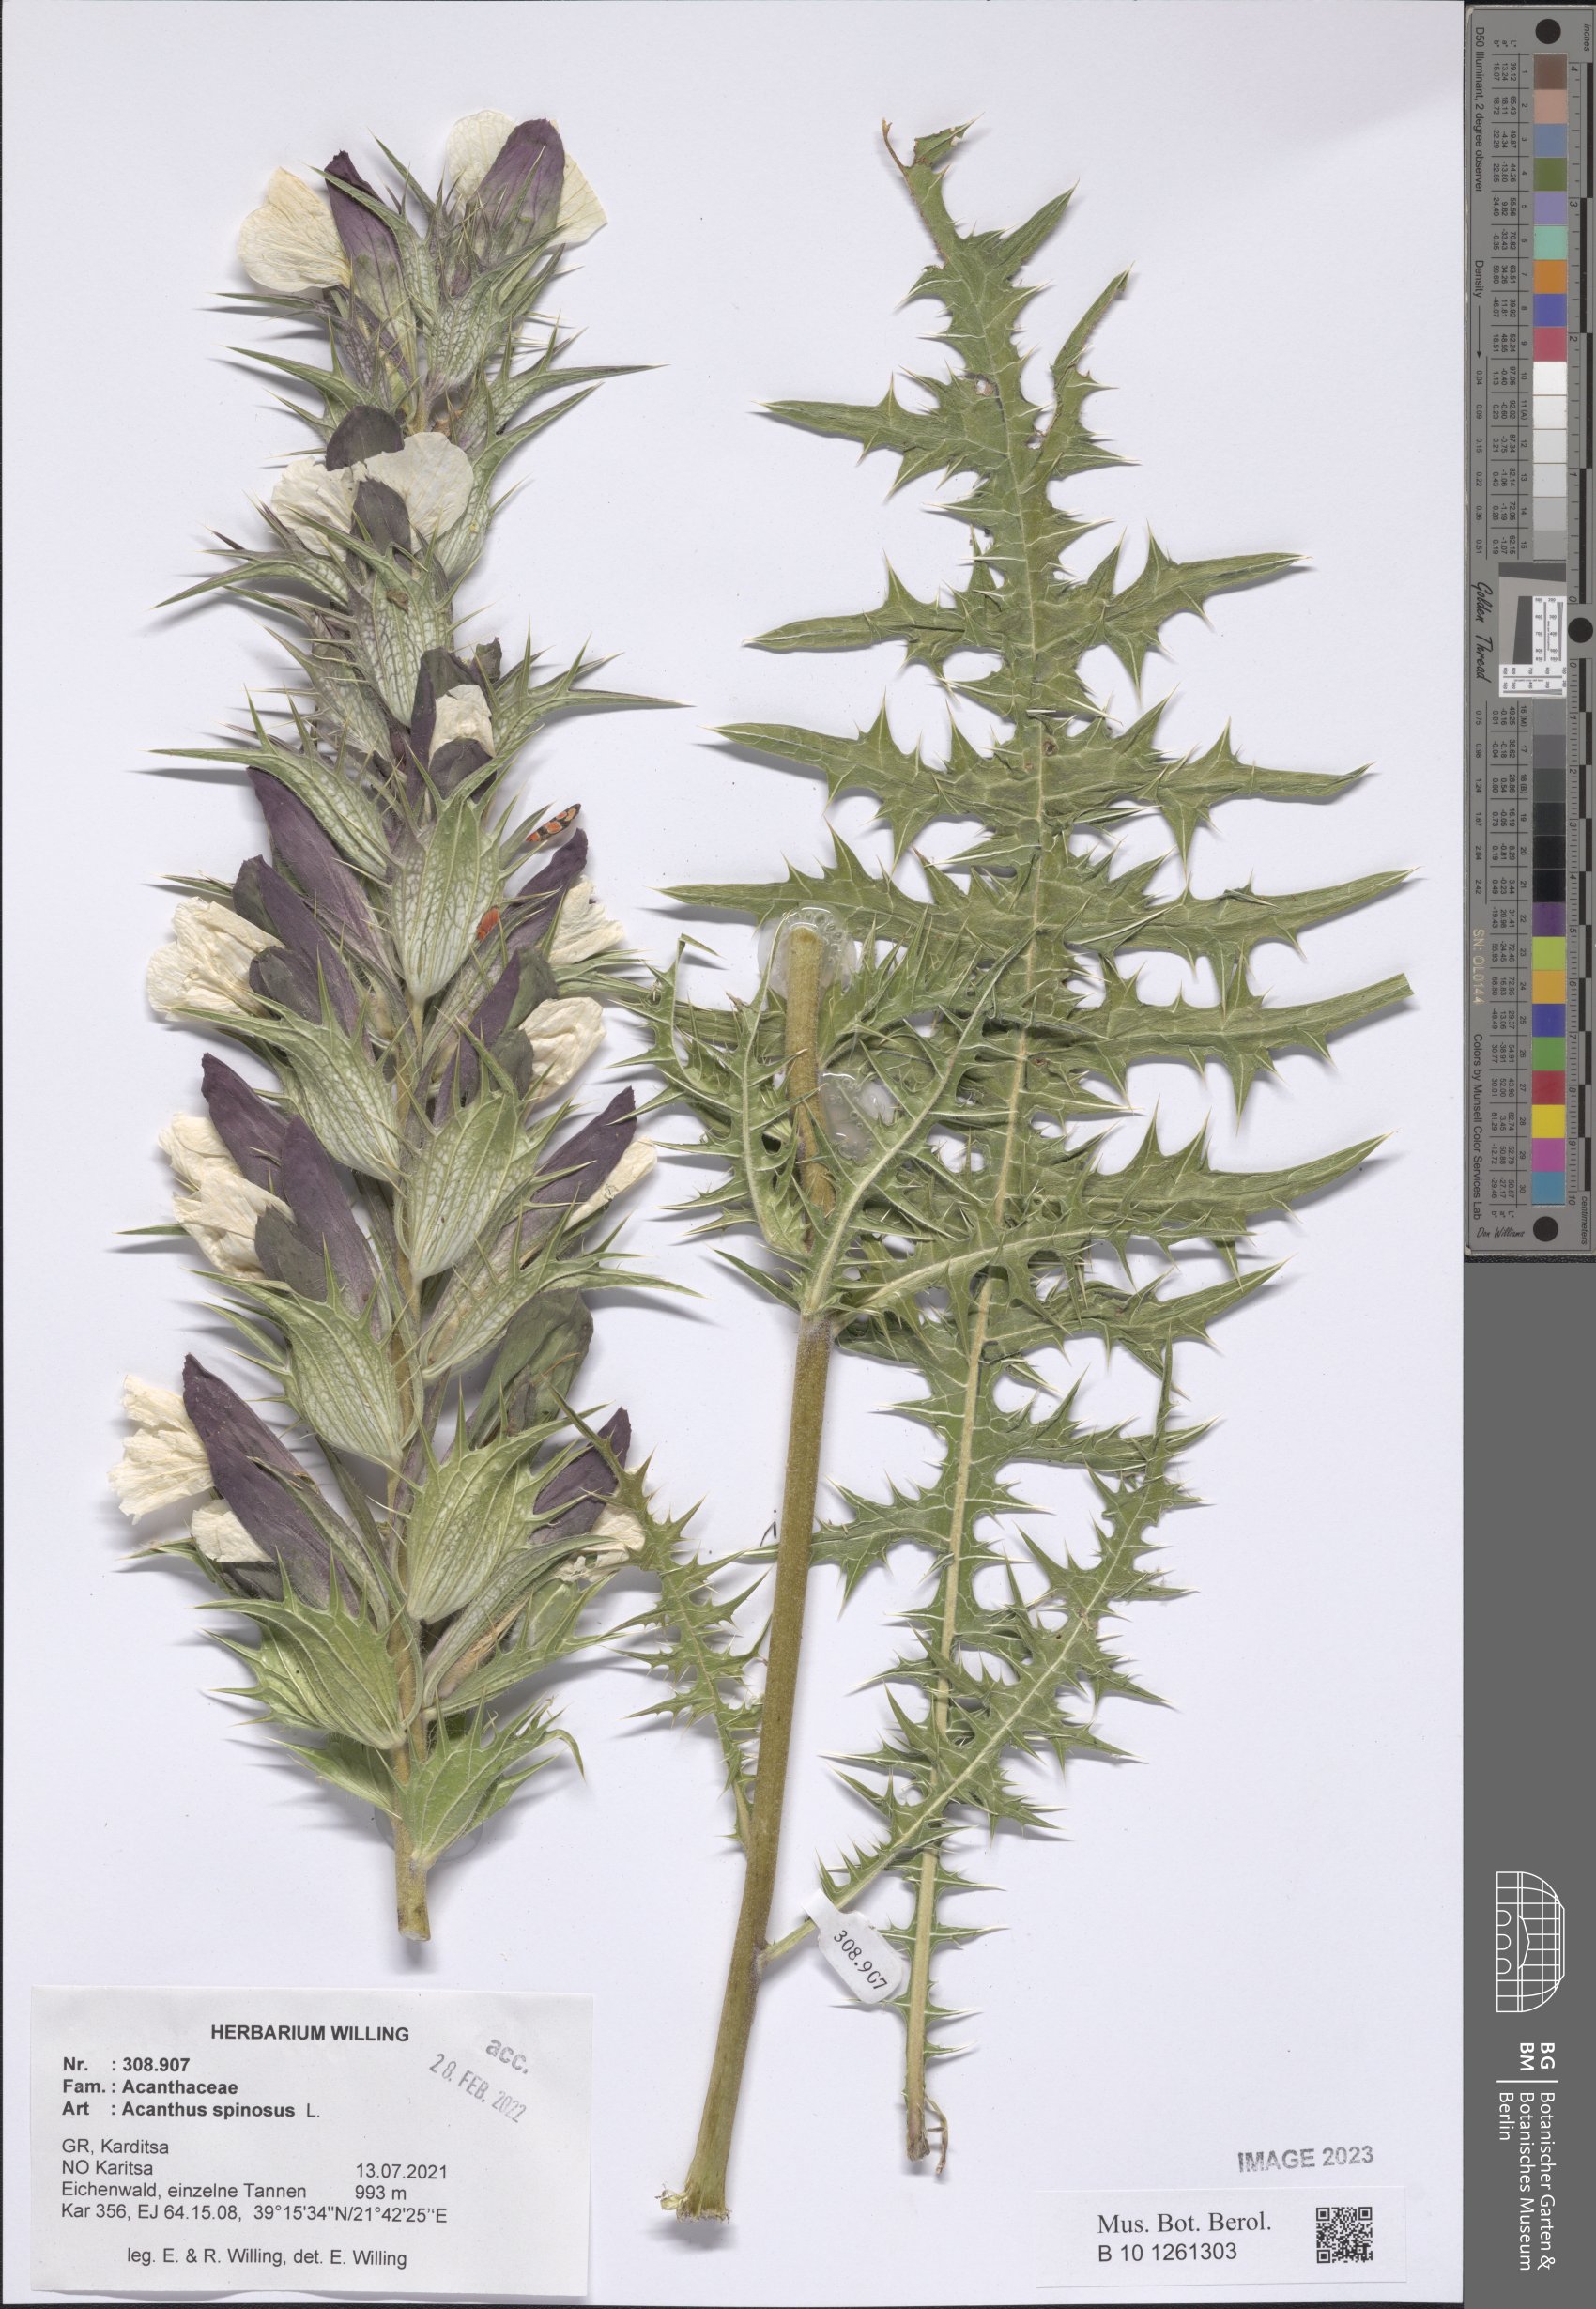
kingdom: Plantae
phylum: Tracheophyta
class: Magnoliopsida
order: Lamiales
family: Acanthaceae
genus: Acanthus
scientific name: Acanthus spinosus
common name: Spiny bear's-breech
